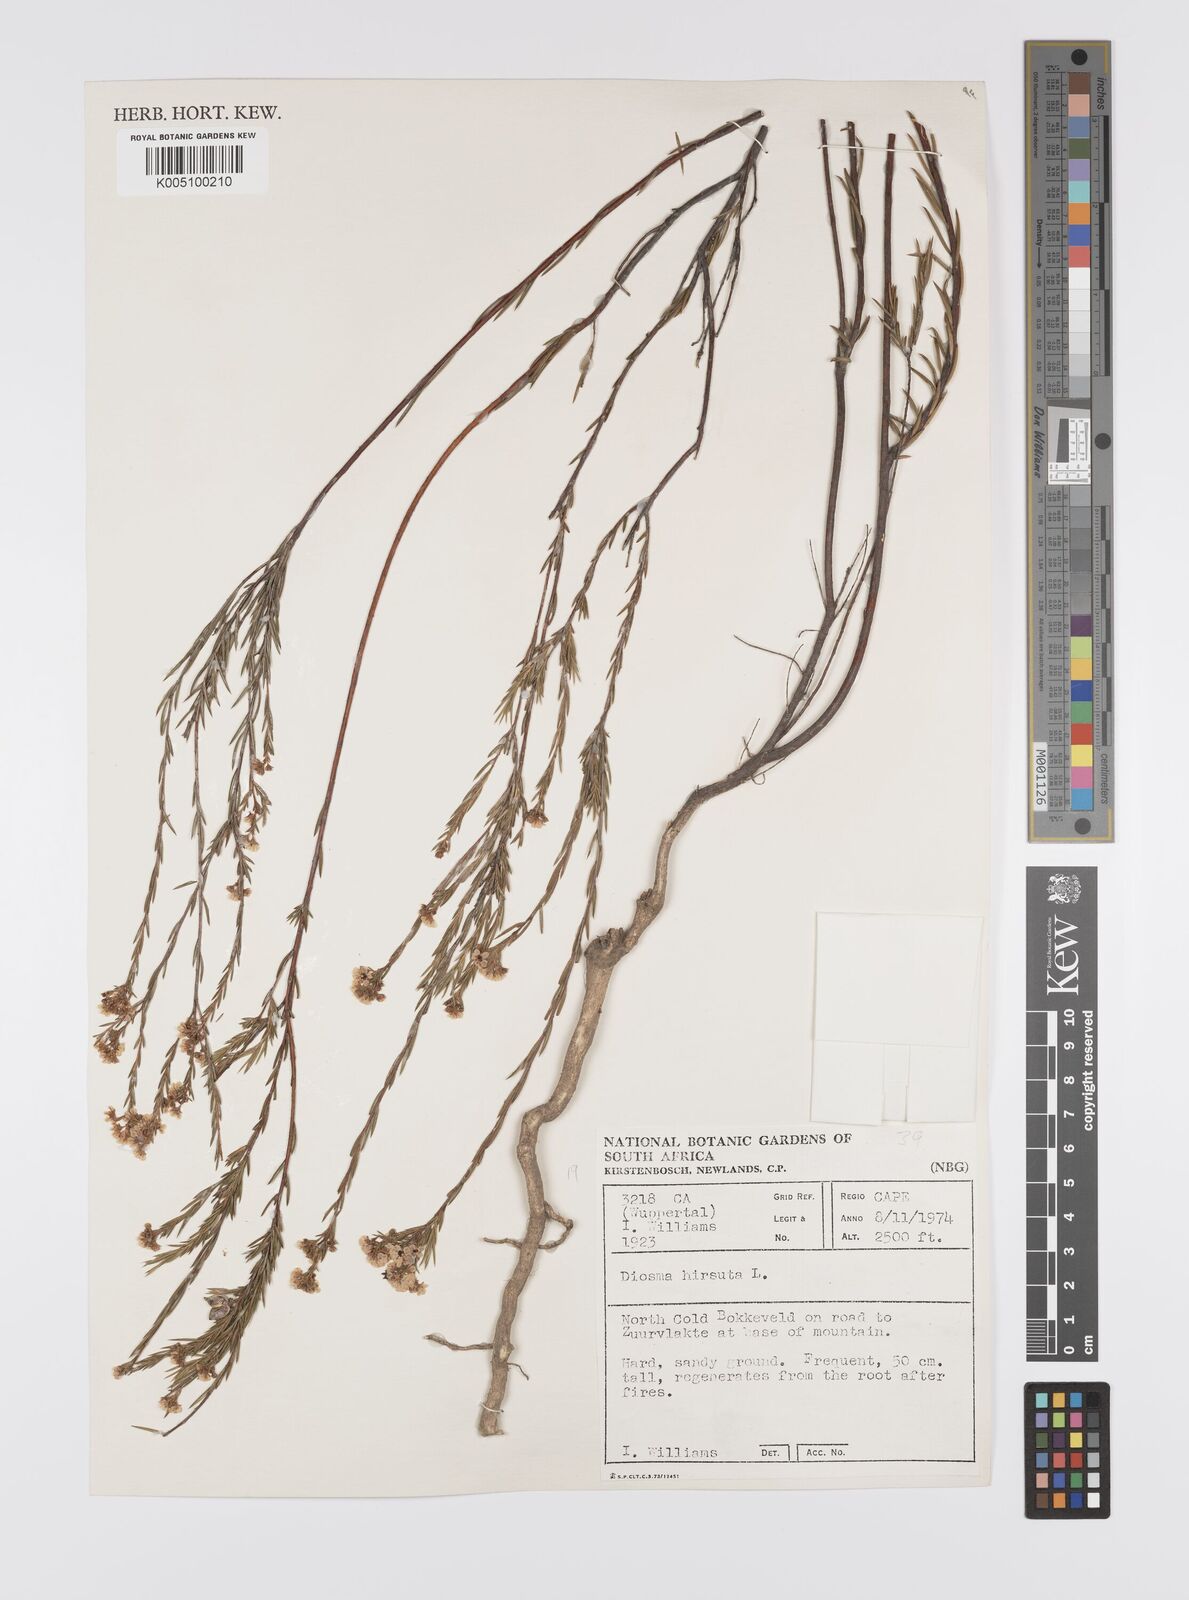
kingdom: Plantae
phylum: Tracheophyta
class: Magnoliopsida
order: Sapindales
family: Rutaceae
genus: Diosma
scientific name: Diosma hirsuta
